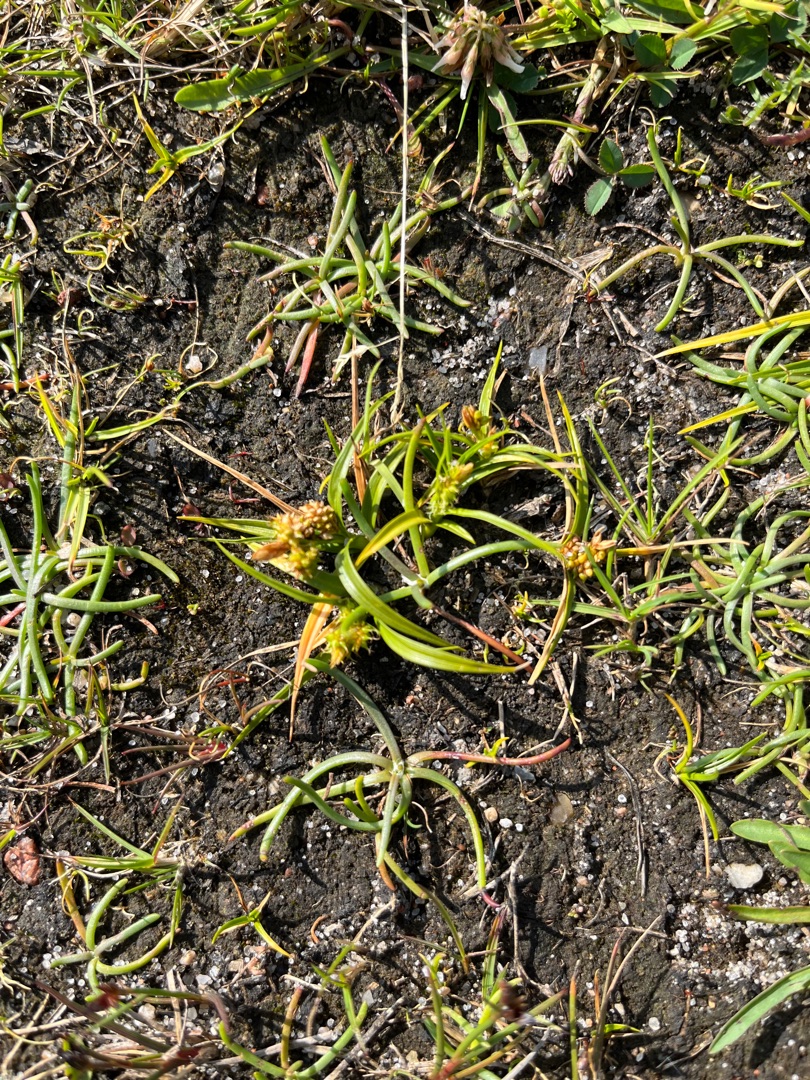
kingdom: Plantae
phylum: Tracheophyta
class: Liliopsida
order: Poales
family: Cyperaceae
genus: Carex
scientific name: Carex oederi
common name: Dværg-star
